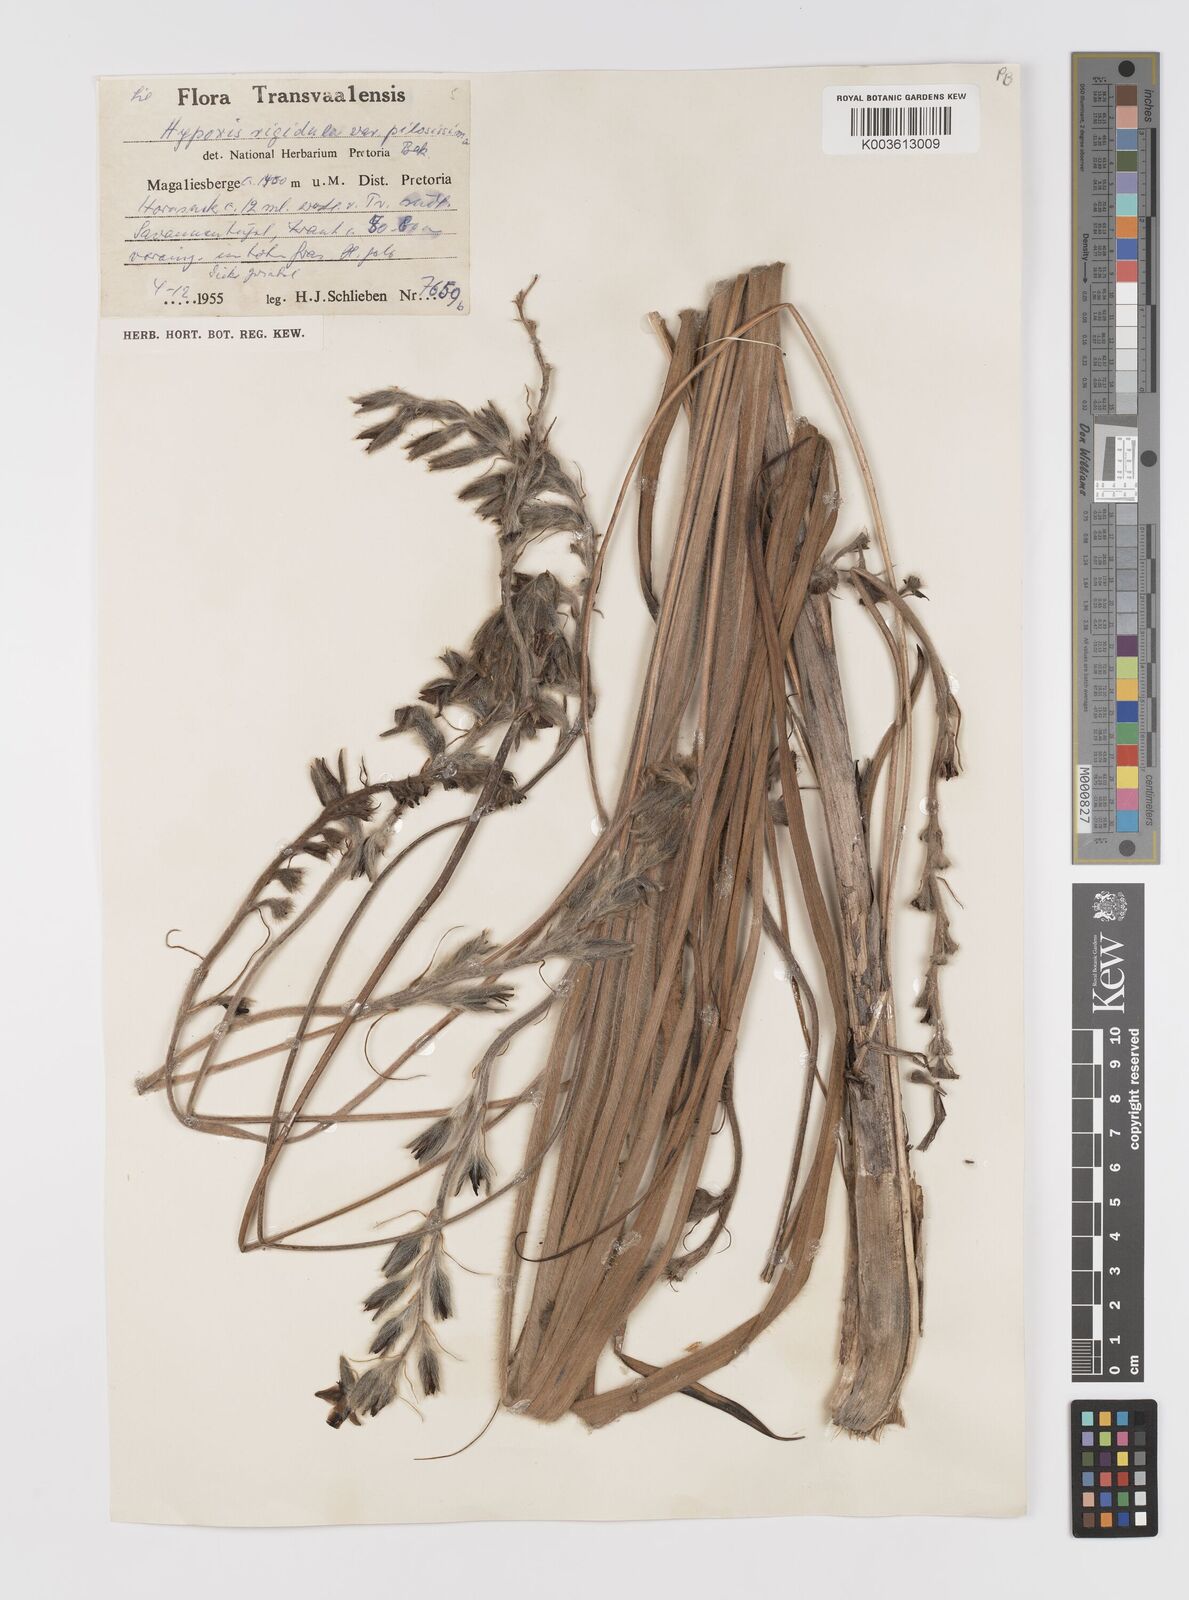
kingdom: Plantae
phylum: Tracheophyta
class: Liliopsida
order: Asparagales
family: Hypoxidaceae
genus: Hypoxis
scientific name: Hypoxis rigidula
